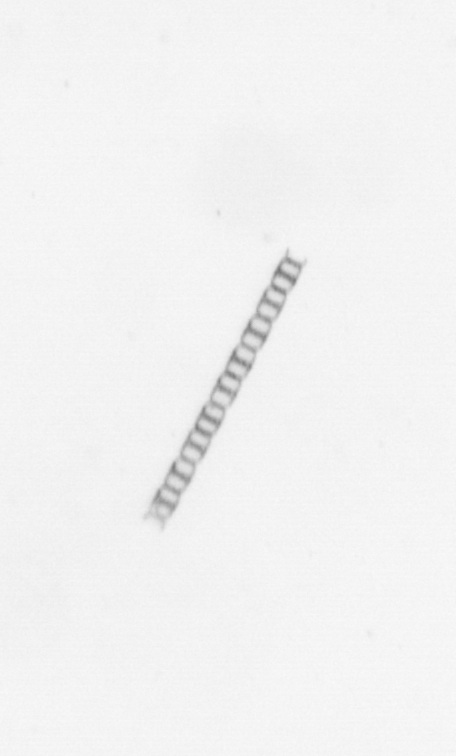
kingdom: Chromista
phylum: Ochrophyta
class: Bacillariophyceae
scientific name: Bacillariophyceae
